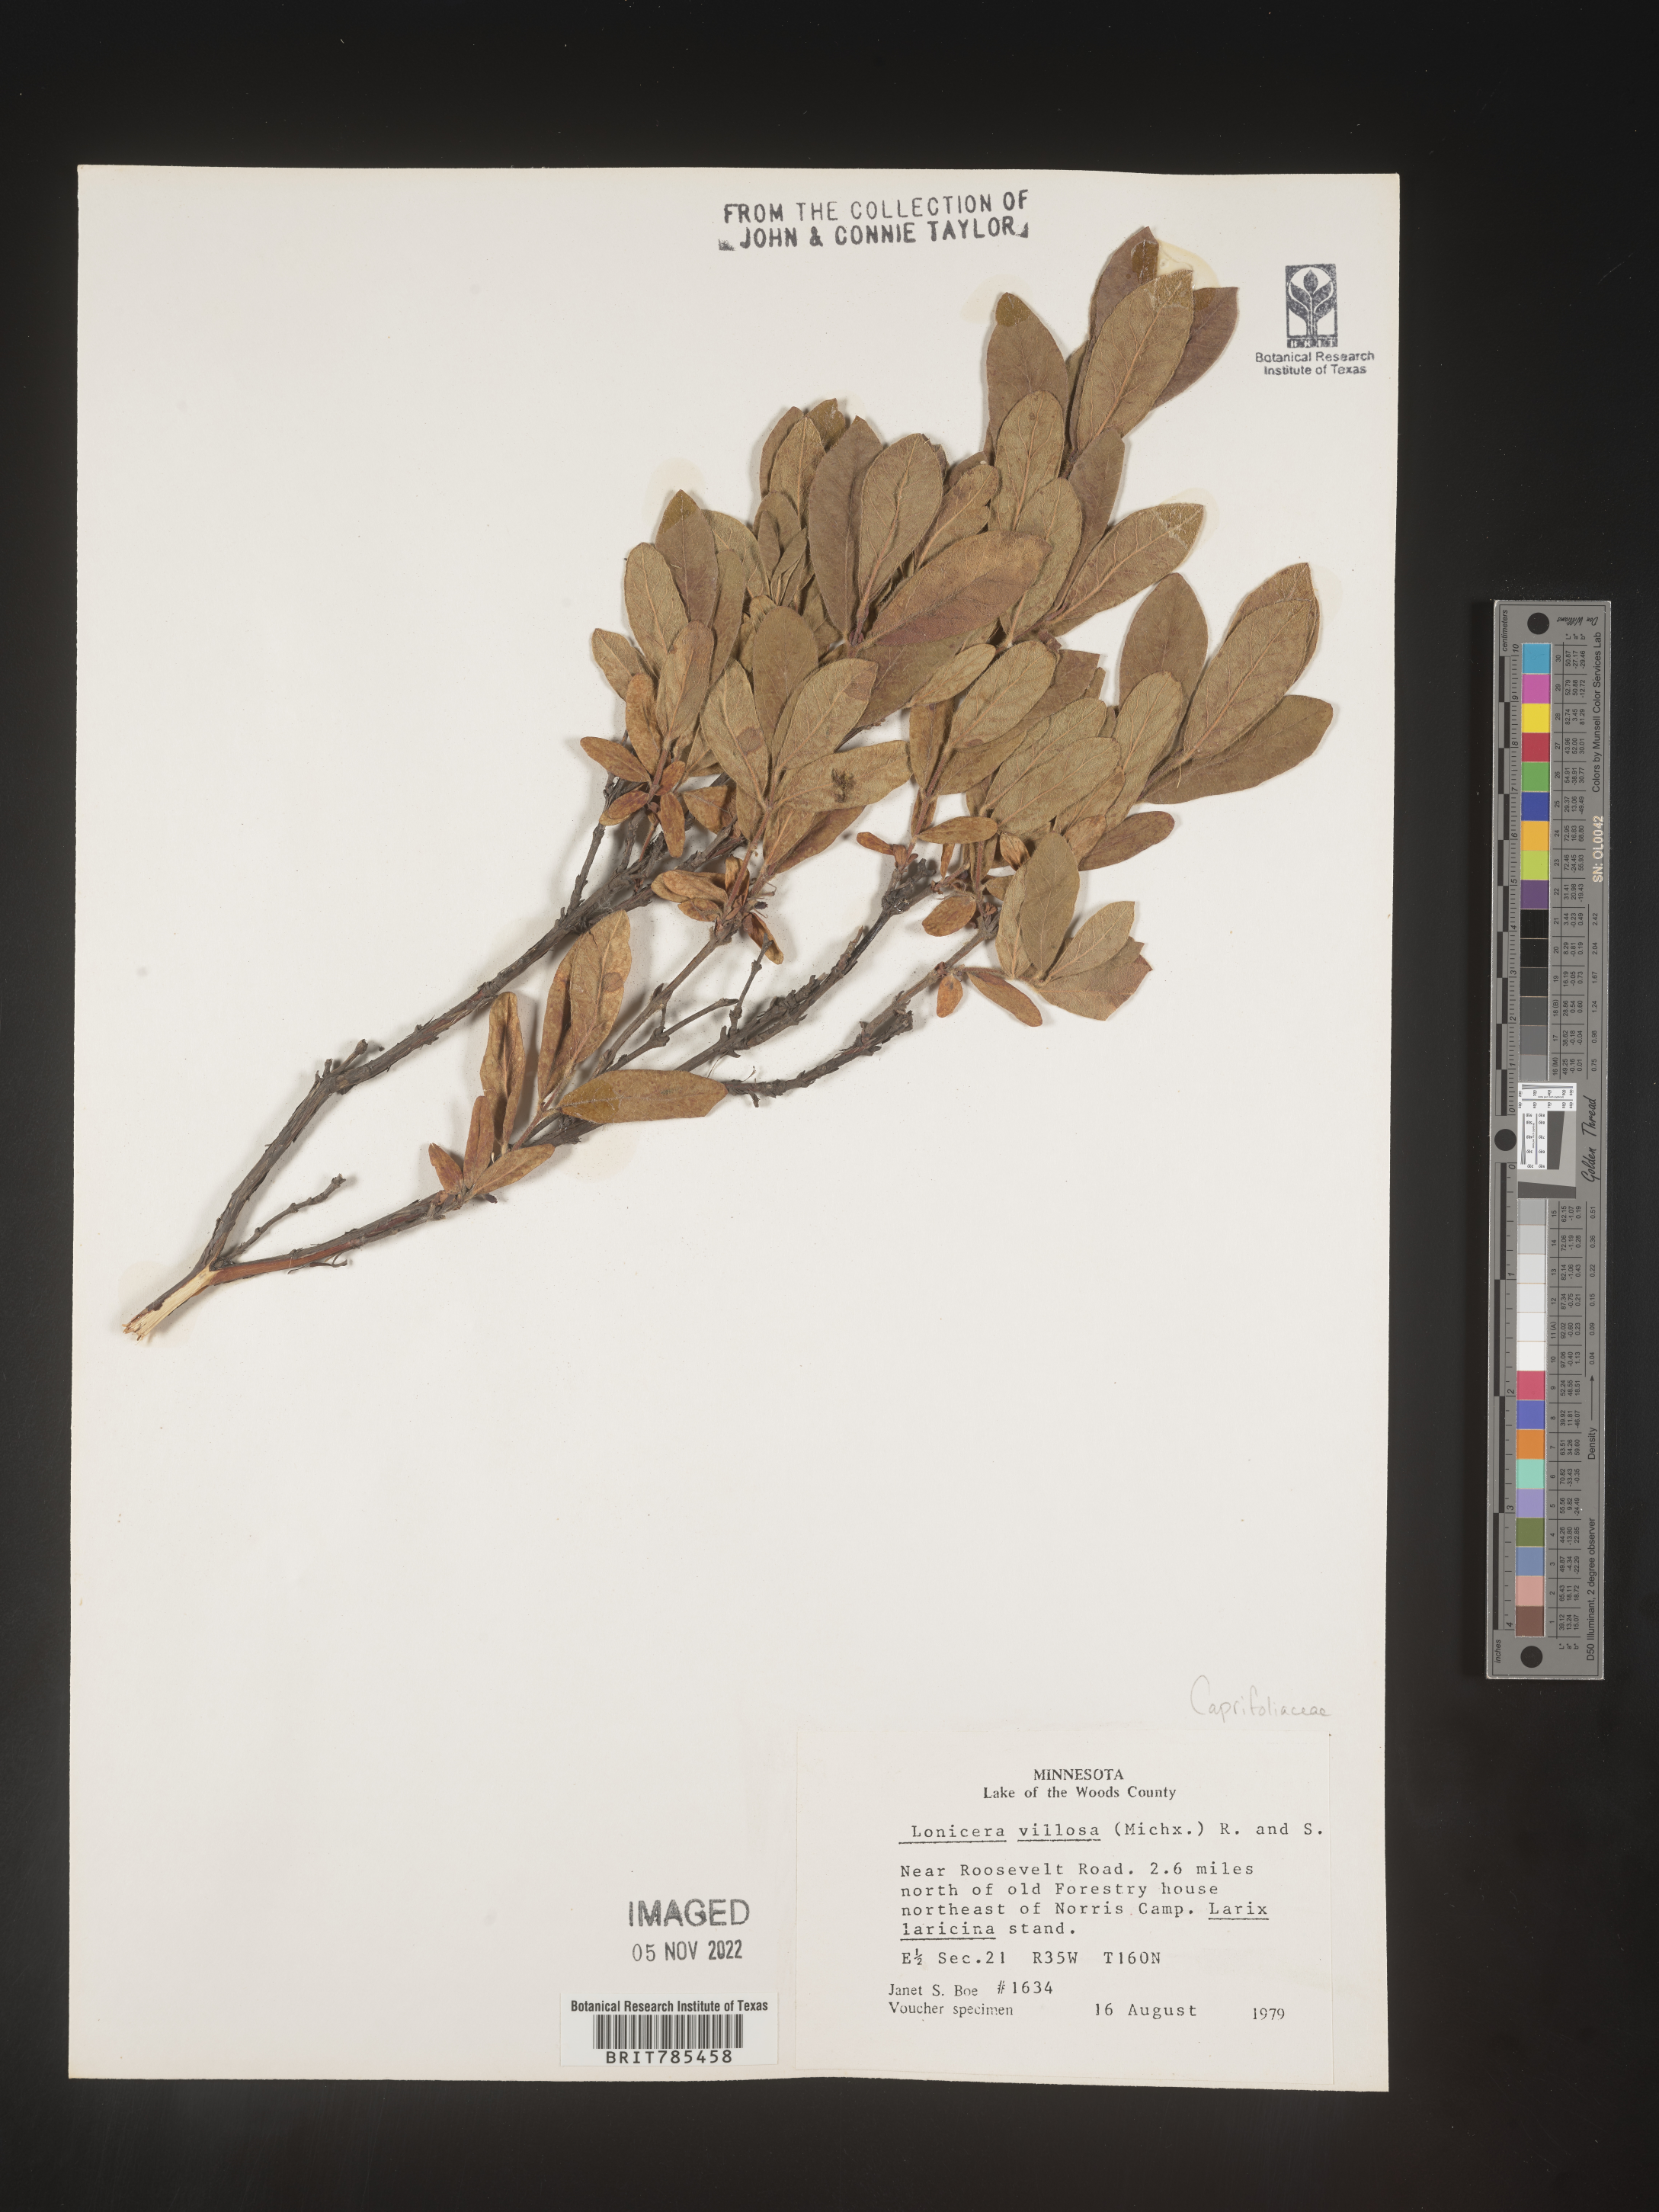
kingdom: Plantae
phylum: Tracheophyta
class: Magnoliopsida
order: Dipsacales
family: Caprifoliaceae
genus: Lonicera
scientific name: Lonicera
